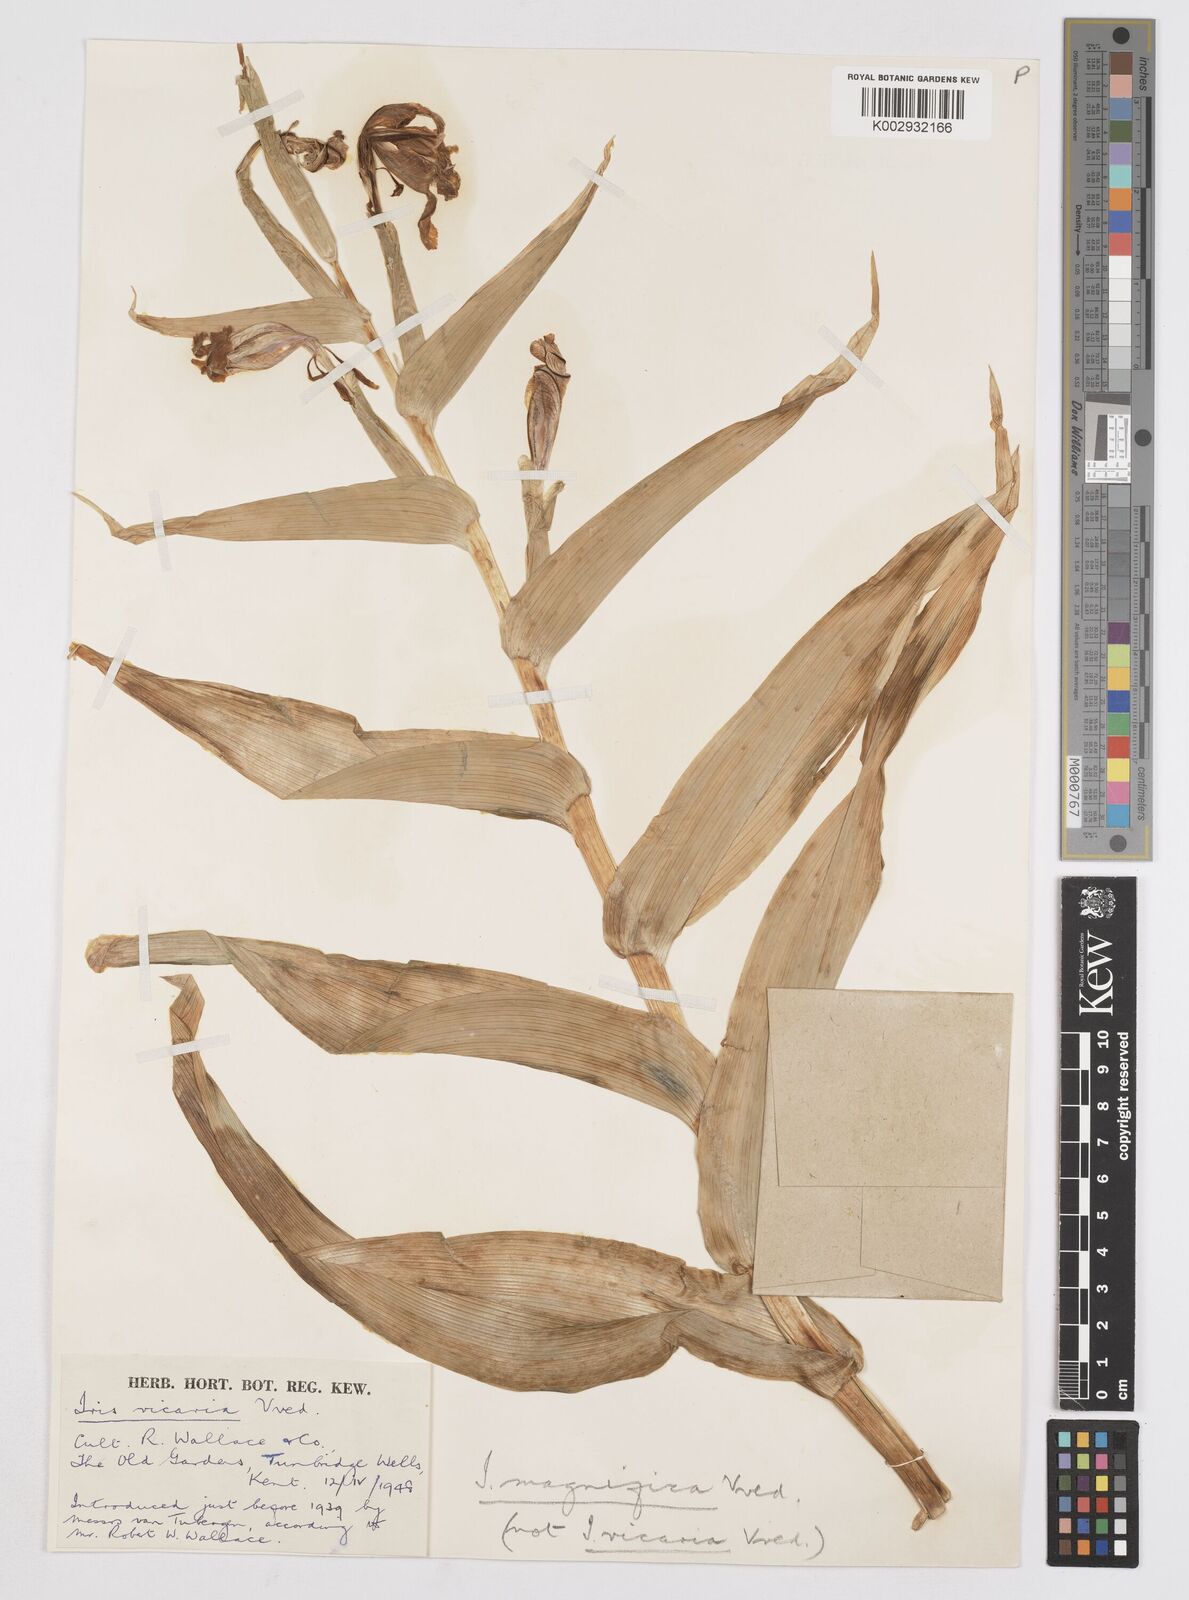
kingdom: Plantae
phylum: Tracheophyta
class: Liliopsida
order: Asparagales
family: Iridaceae
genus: Iris
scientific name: Iris magnifica
